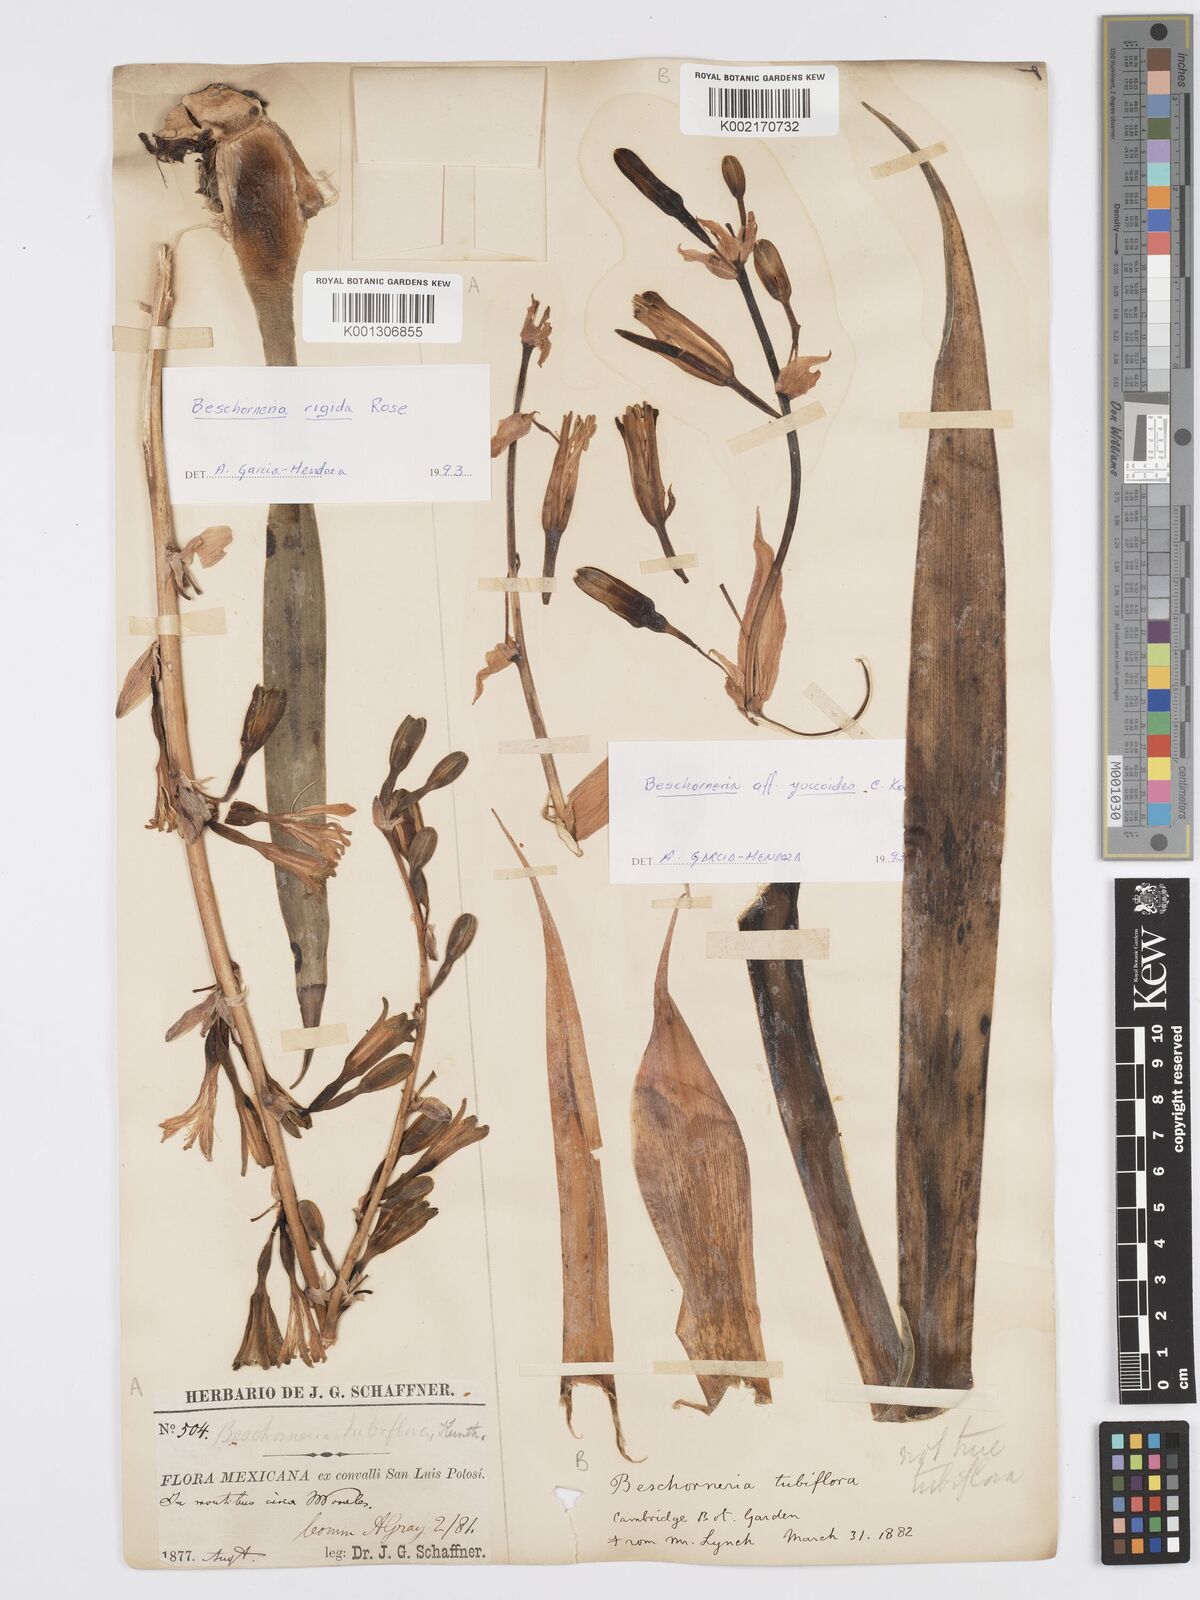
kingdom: Plantae
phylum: Tracheophyta
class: Liliopsida
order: Asparagales
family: Asparagaceae
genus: Beschorneria
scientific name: Beschorneria rigida
